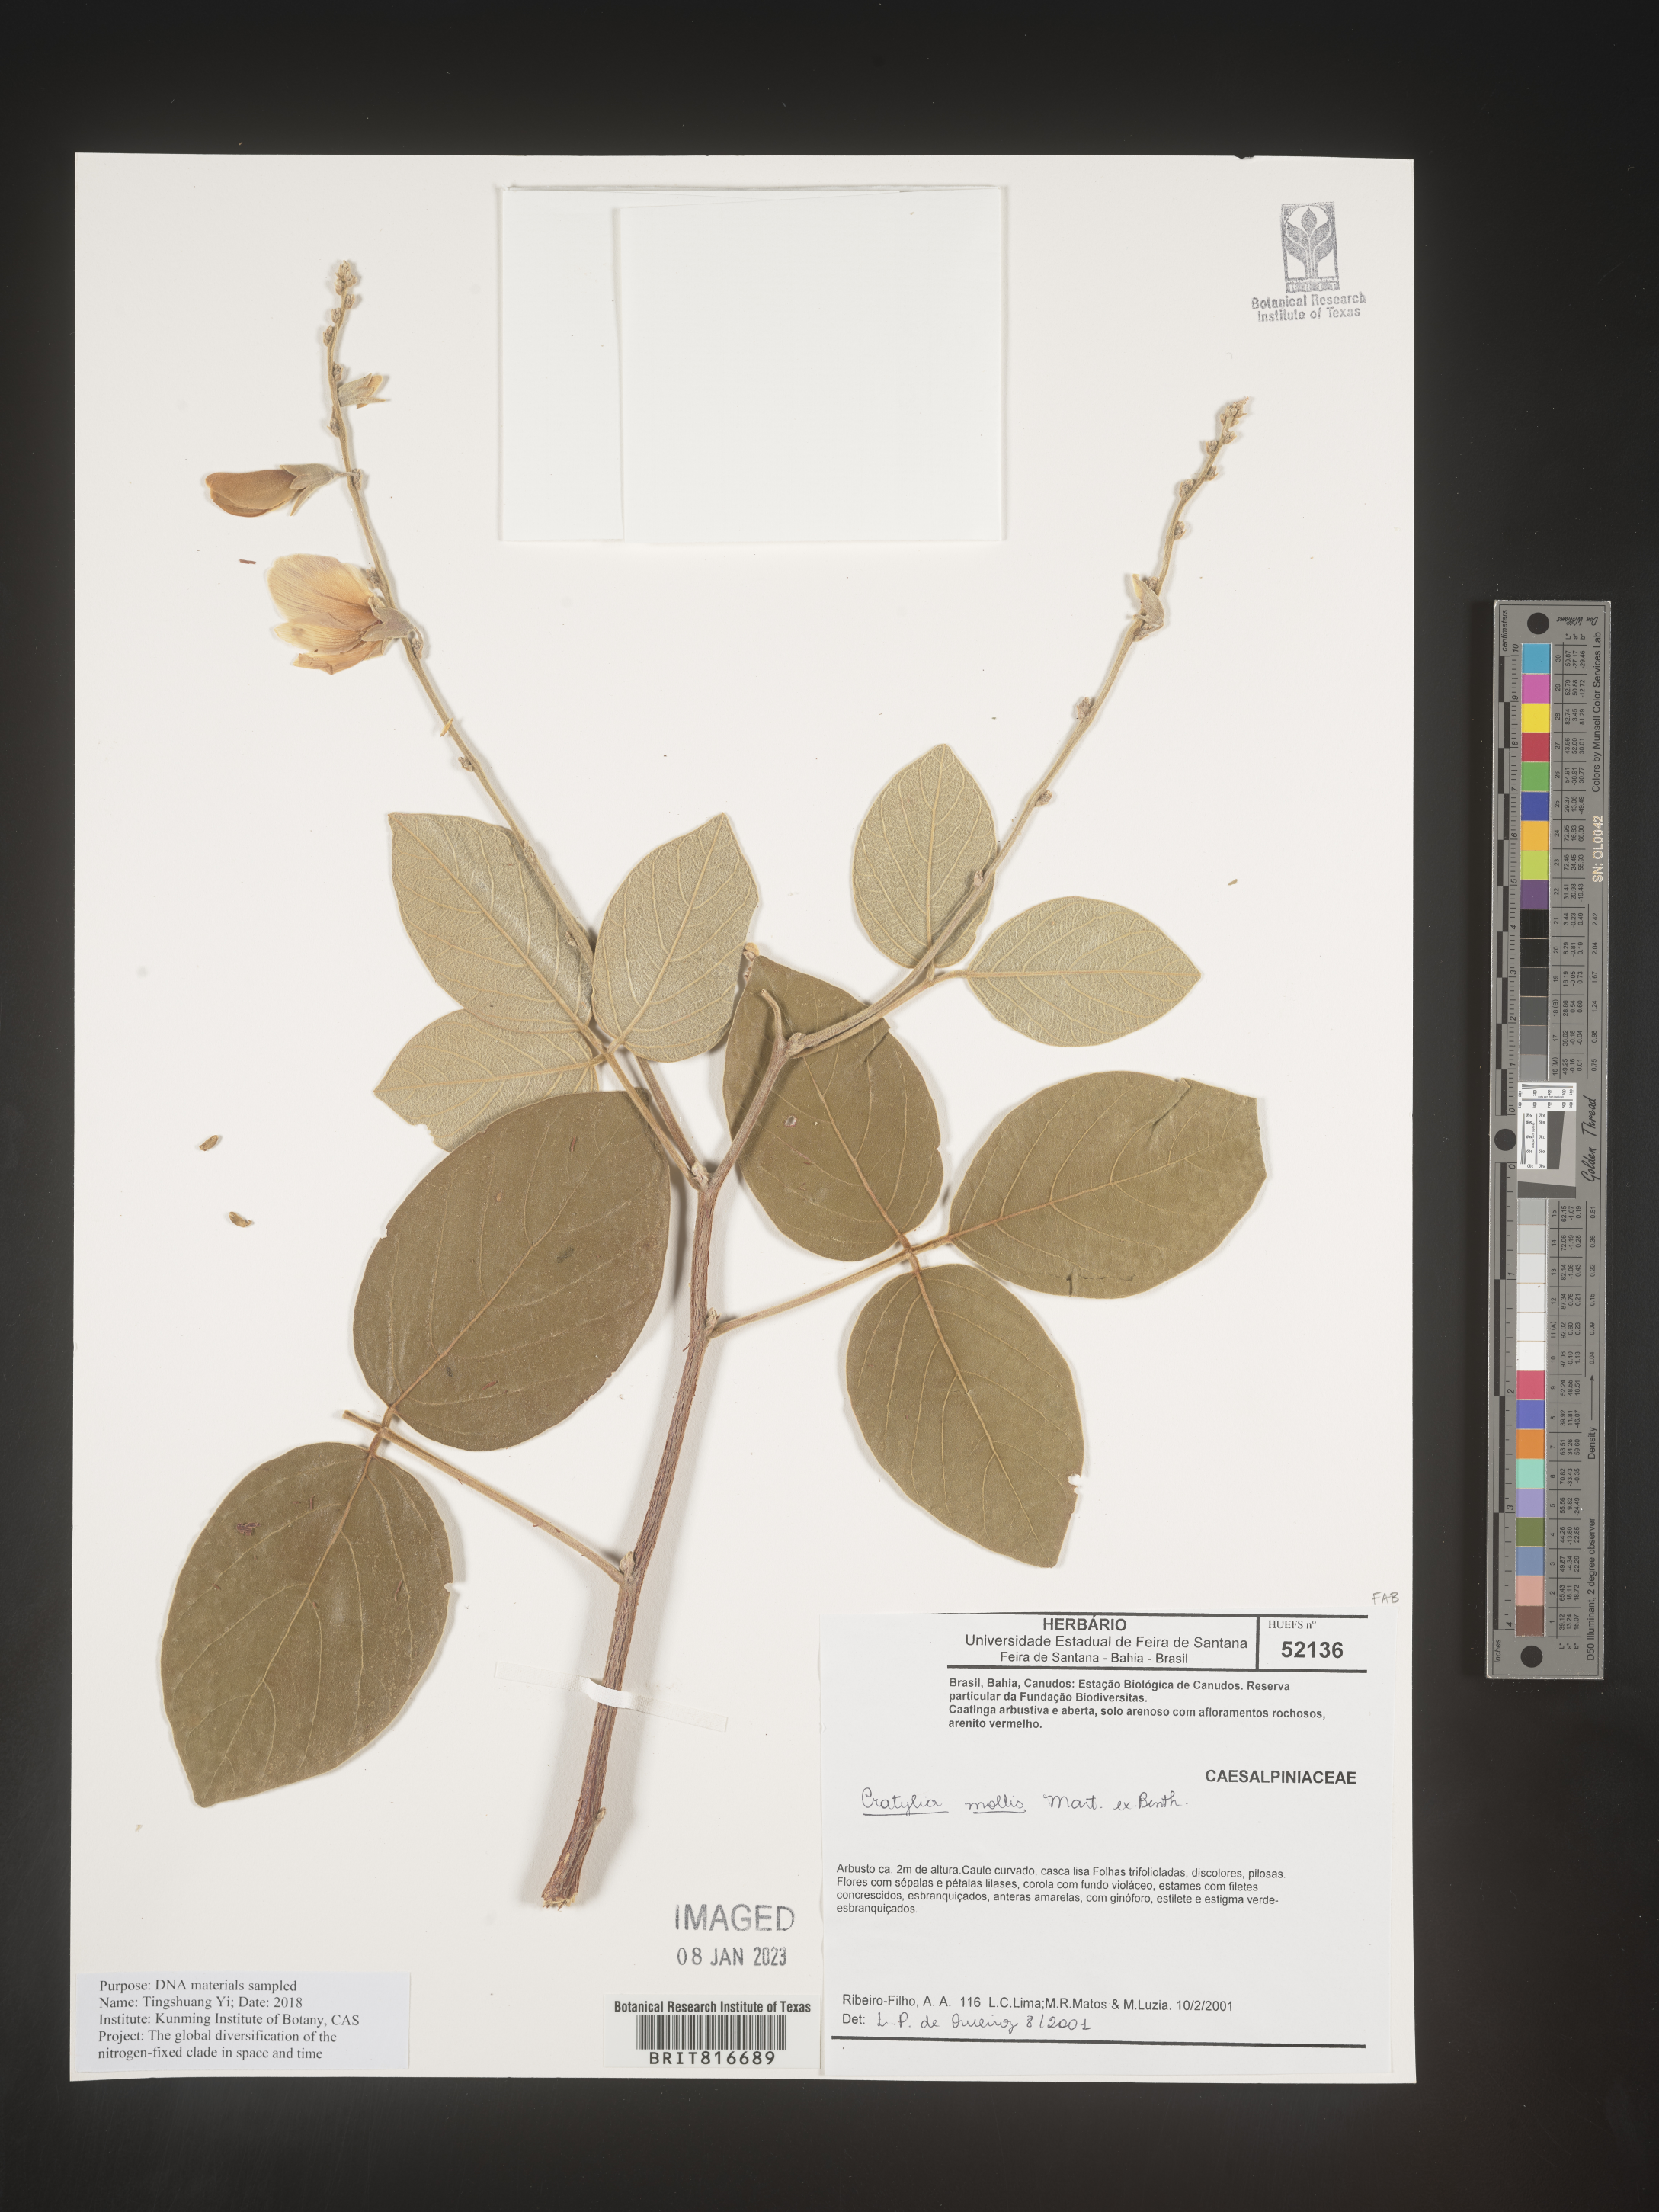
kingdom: Plantae
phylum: Tracheophyta
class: Magnoliopsida
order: Fabales
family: Fabaceae
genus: Cratylia
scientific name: Cratylia
